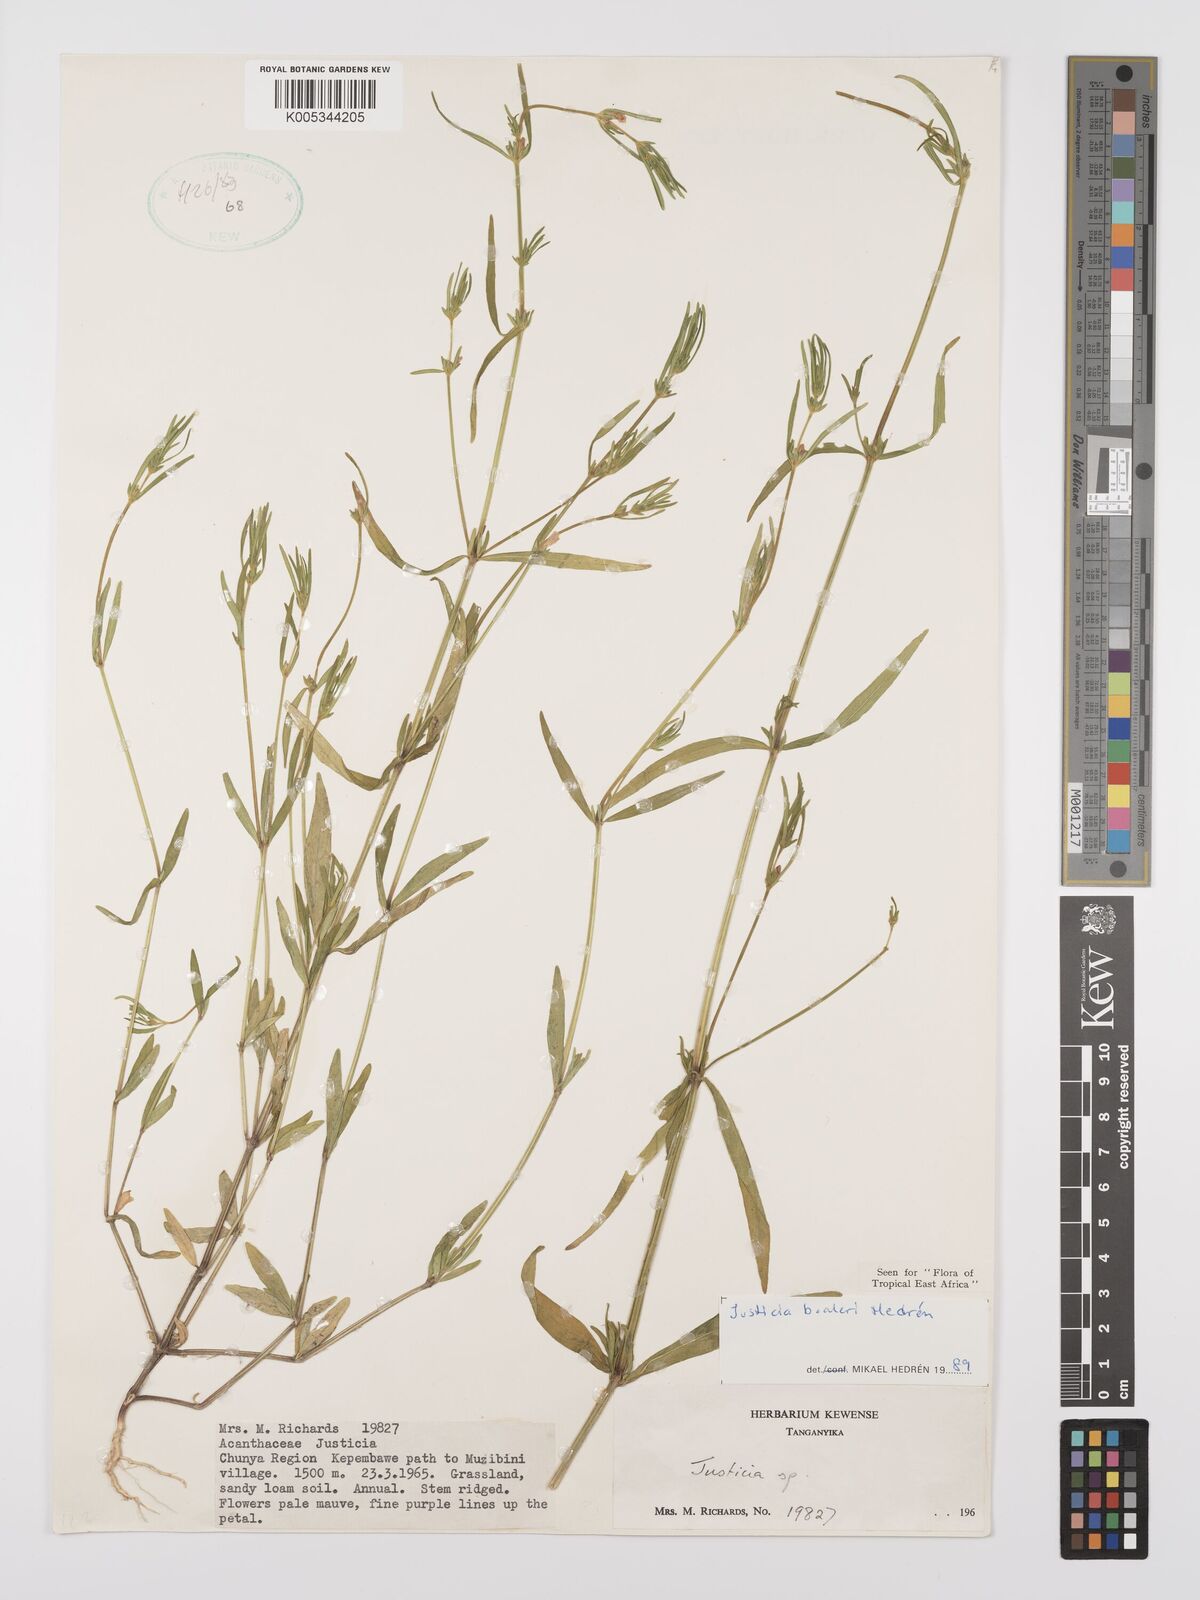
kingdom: Plantae
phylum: Tracheophyta
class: Magnoliopsida
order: Lamiales
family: Acanthaceae
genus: Justicia
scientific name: Justicia boaleri
